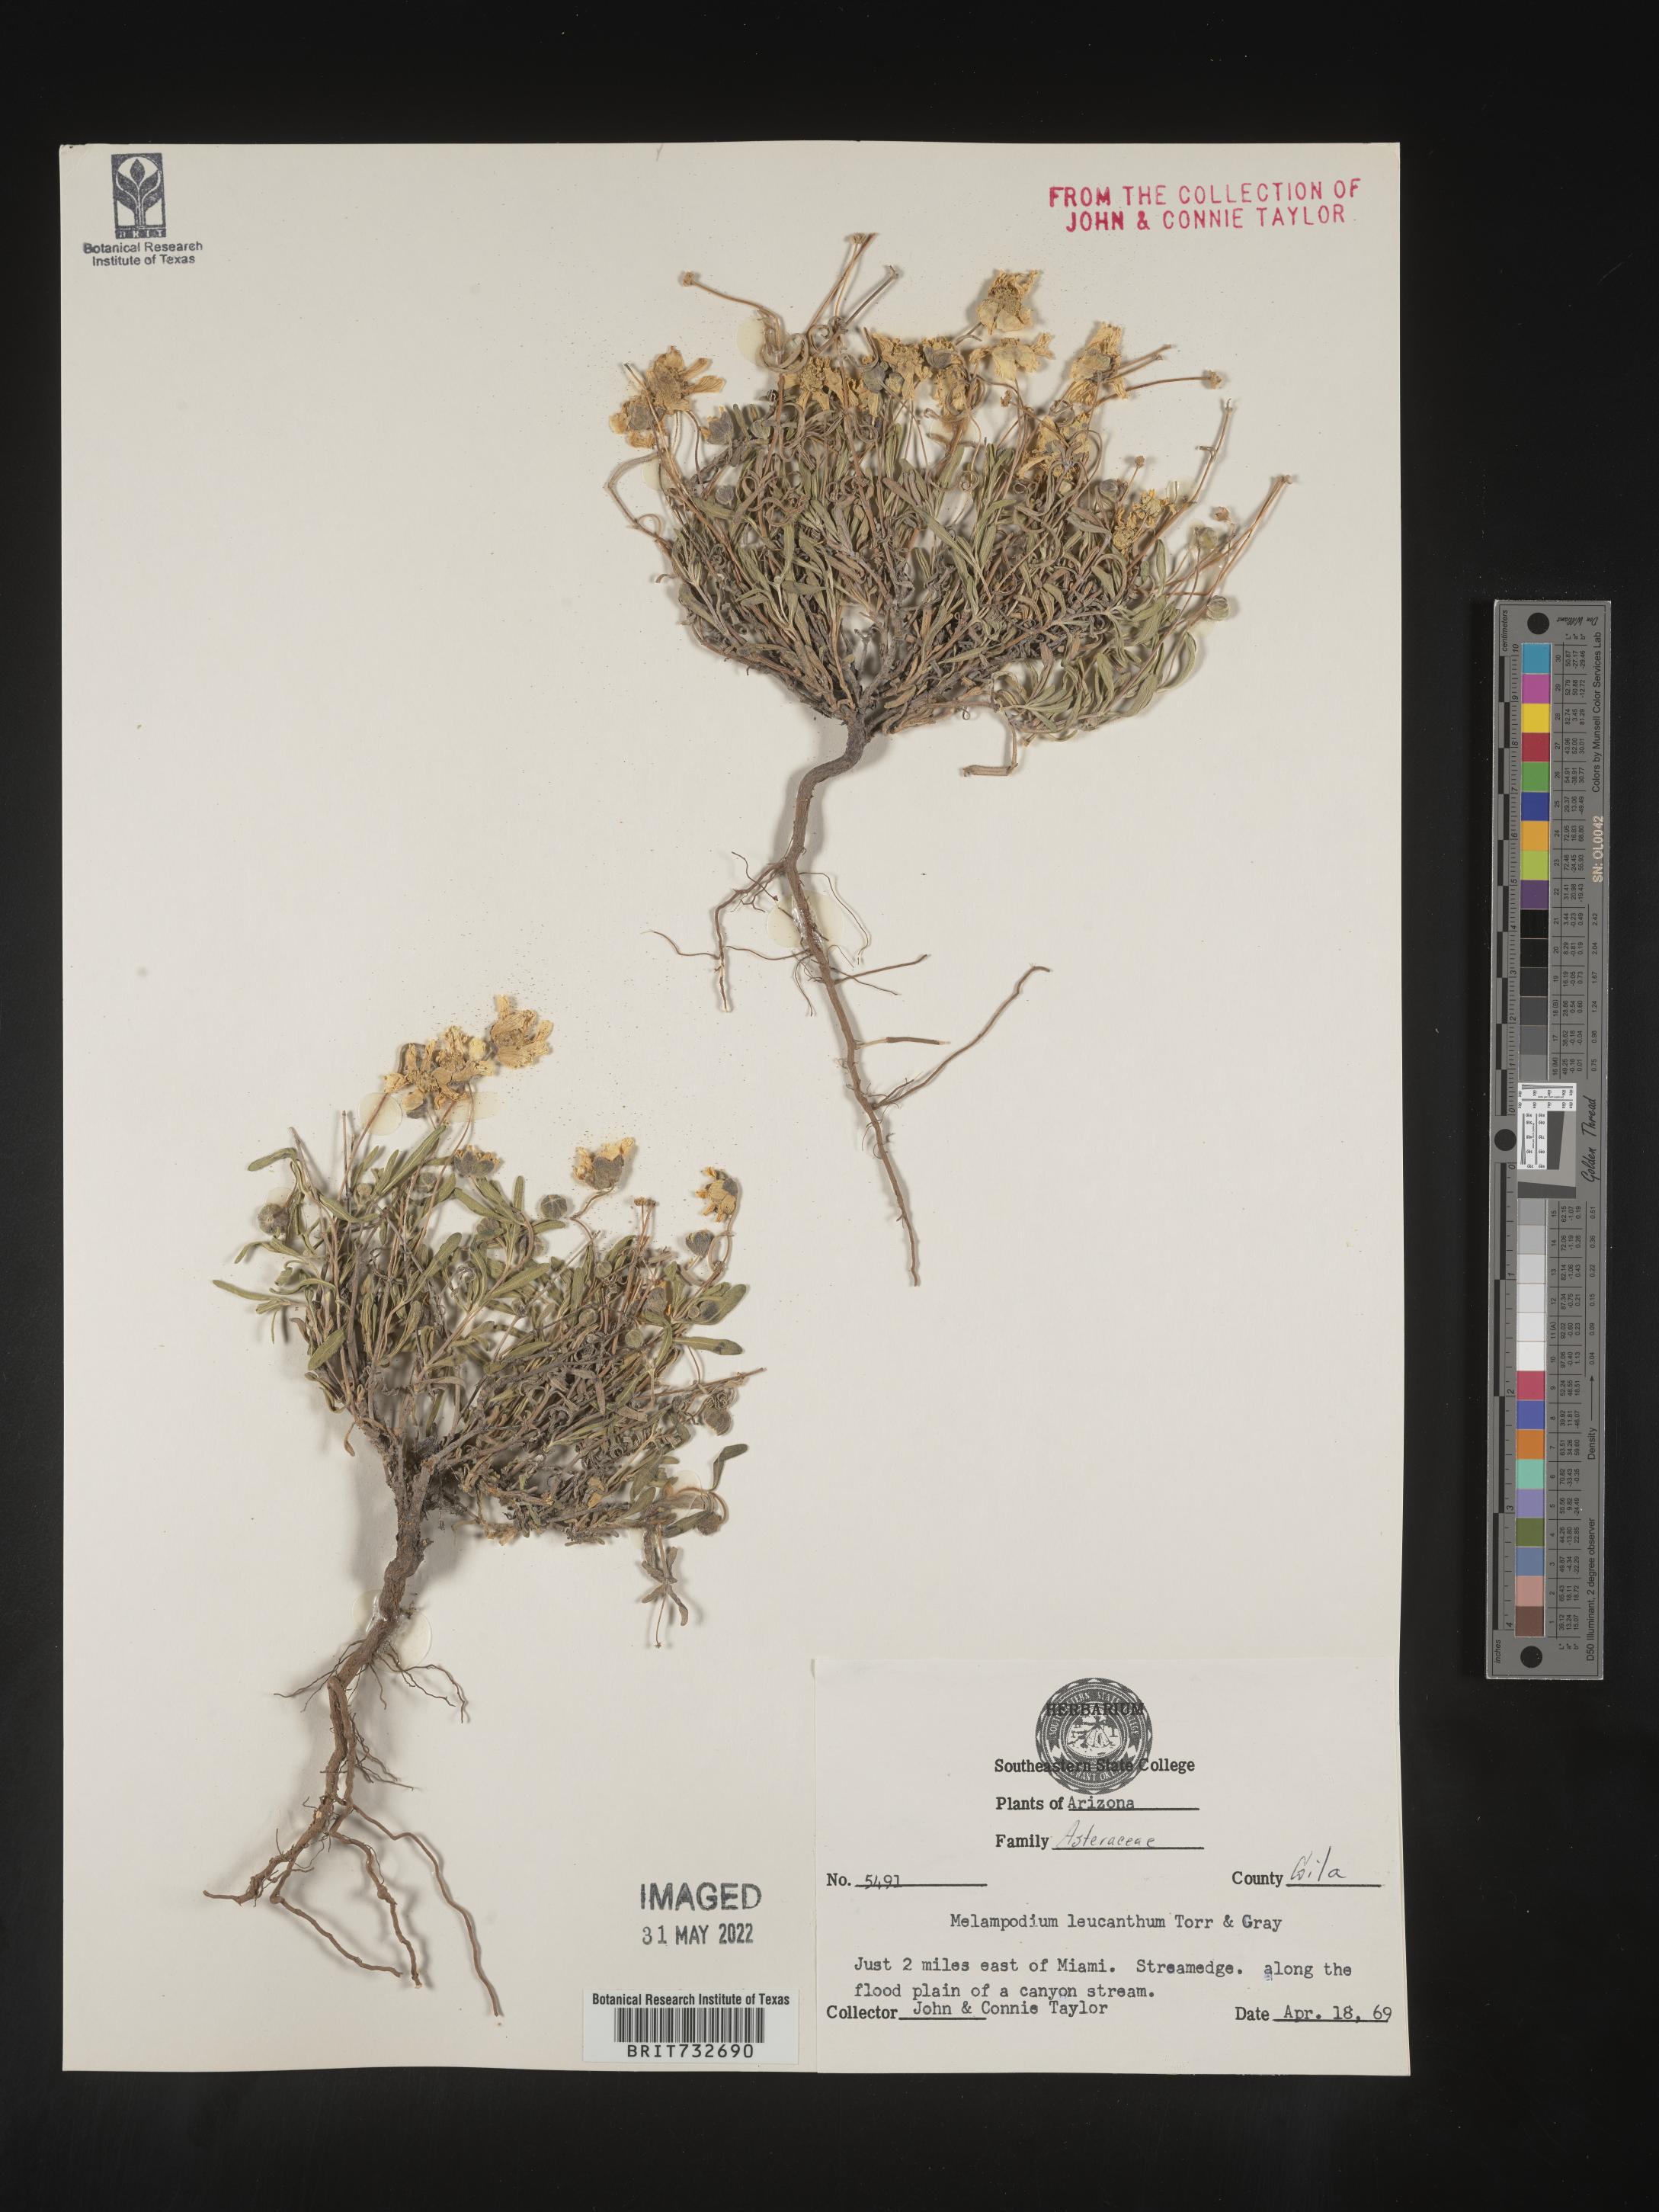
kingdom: Plantae
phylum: Tracheophyta
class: Magnoliopsida
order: Asterales
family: Asteraceae
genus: Melampodium
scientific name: Melampodium leucanthum
